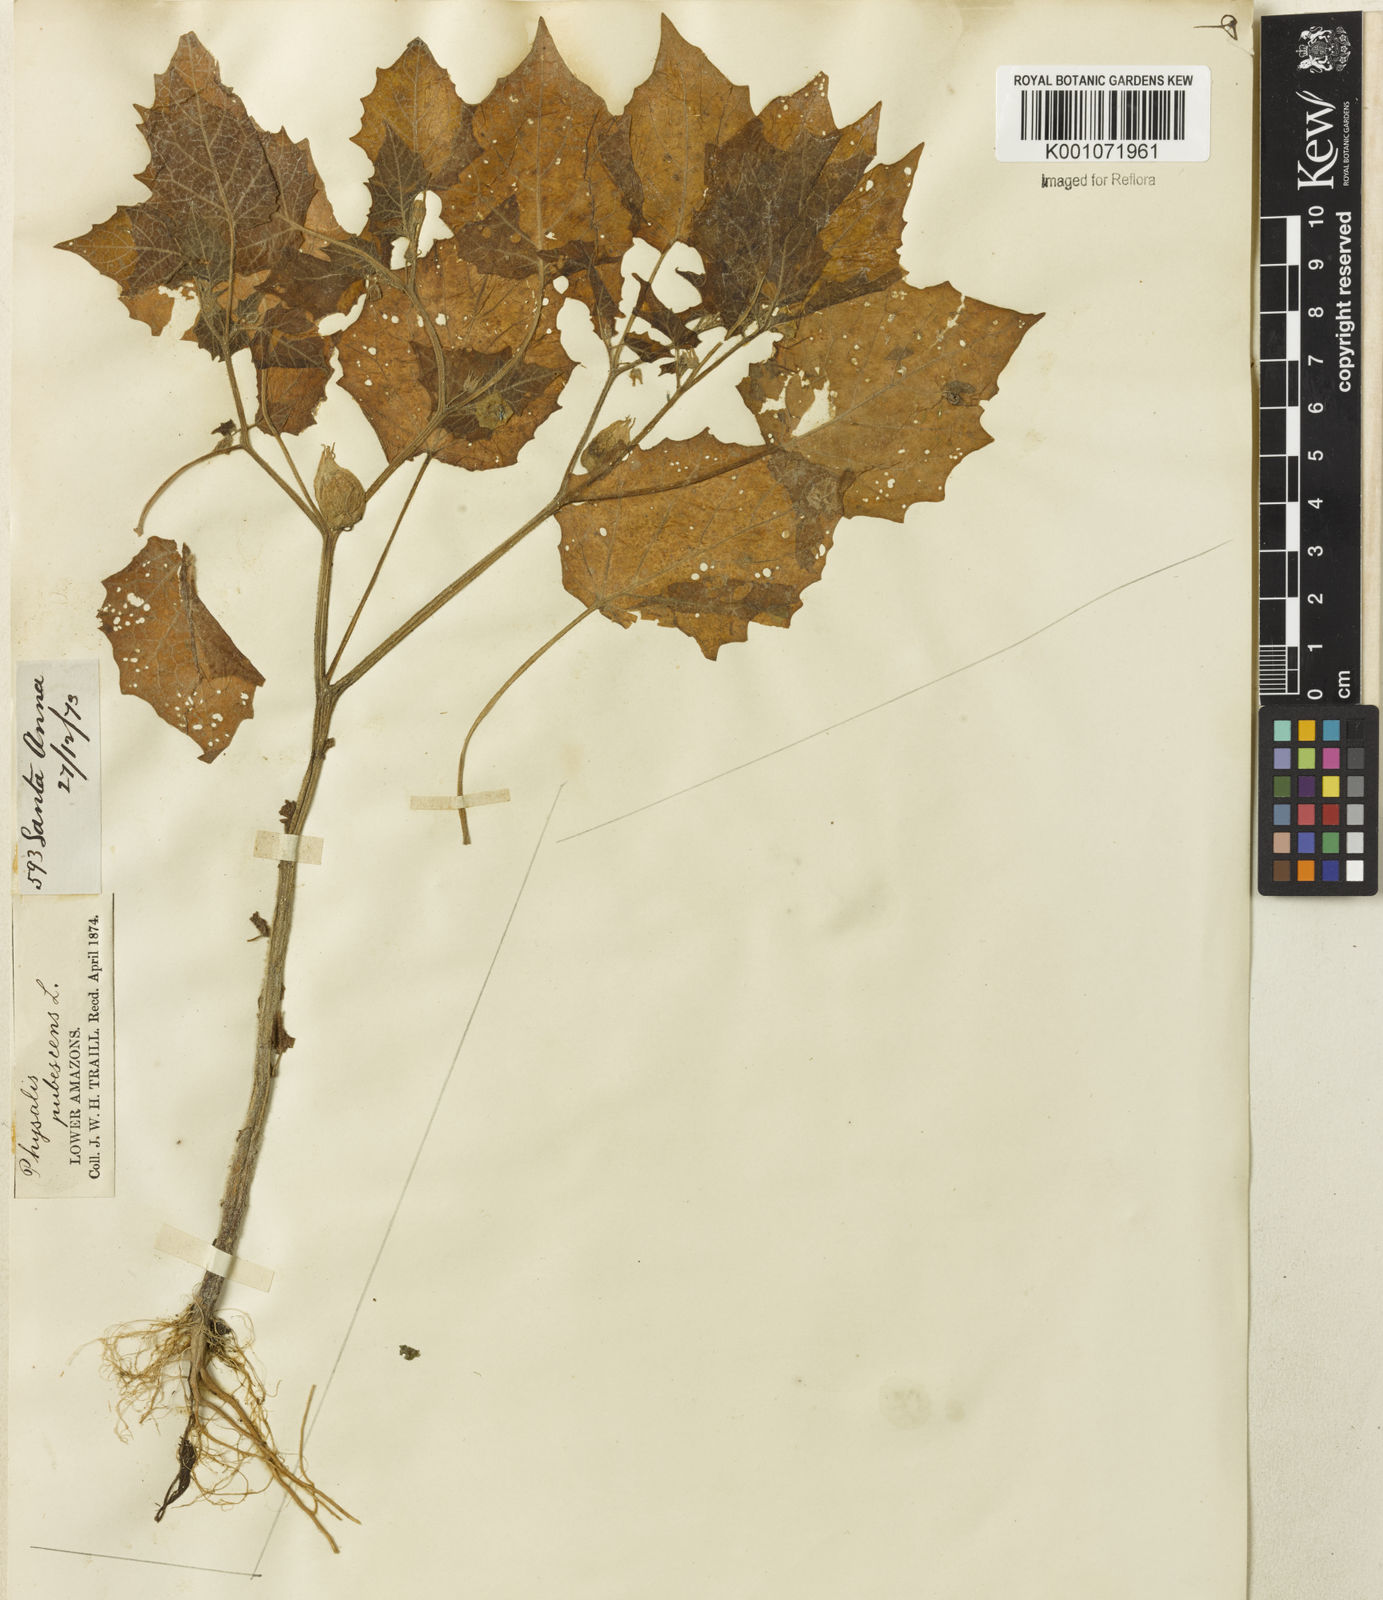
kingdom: Plantae
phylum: Tracheophyta
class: Magnoliopsida
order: Solanales
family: Solanaceae
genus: Physalis
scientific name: Physalis pubescens
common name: Downy ground-cherry
